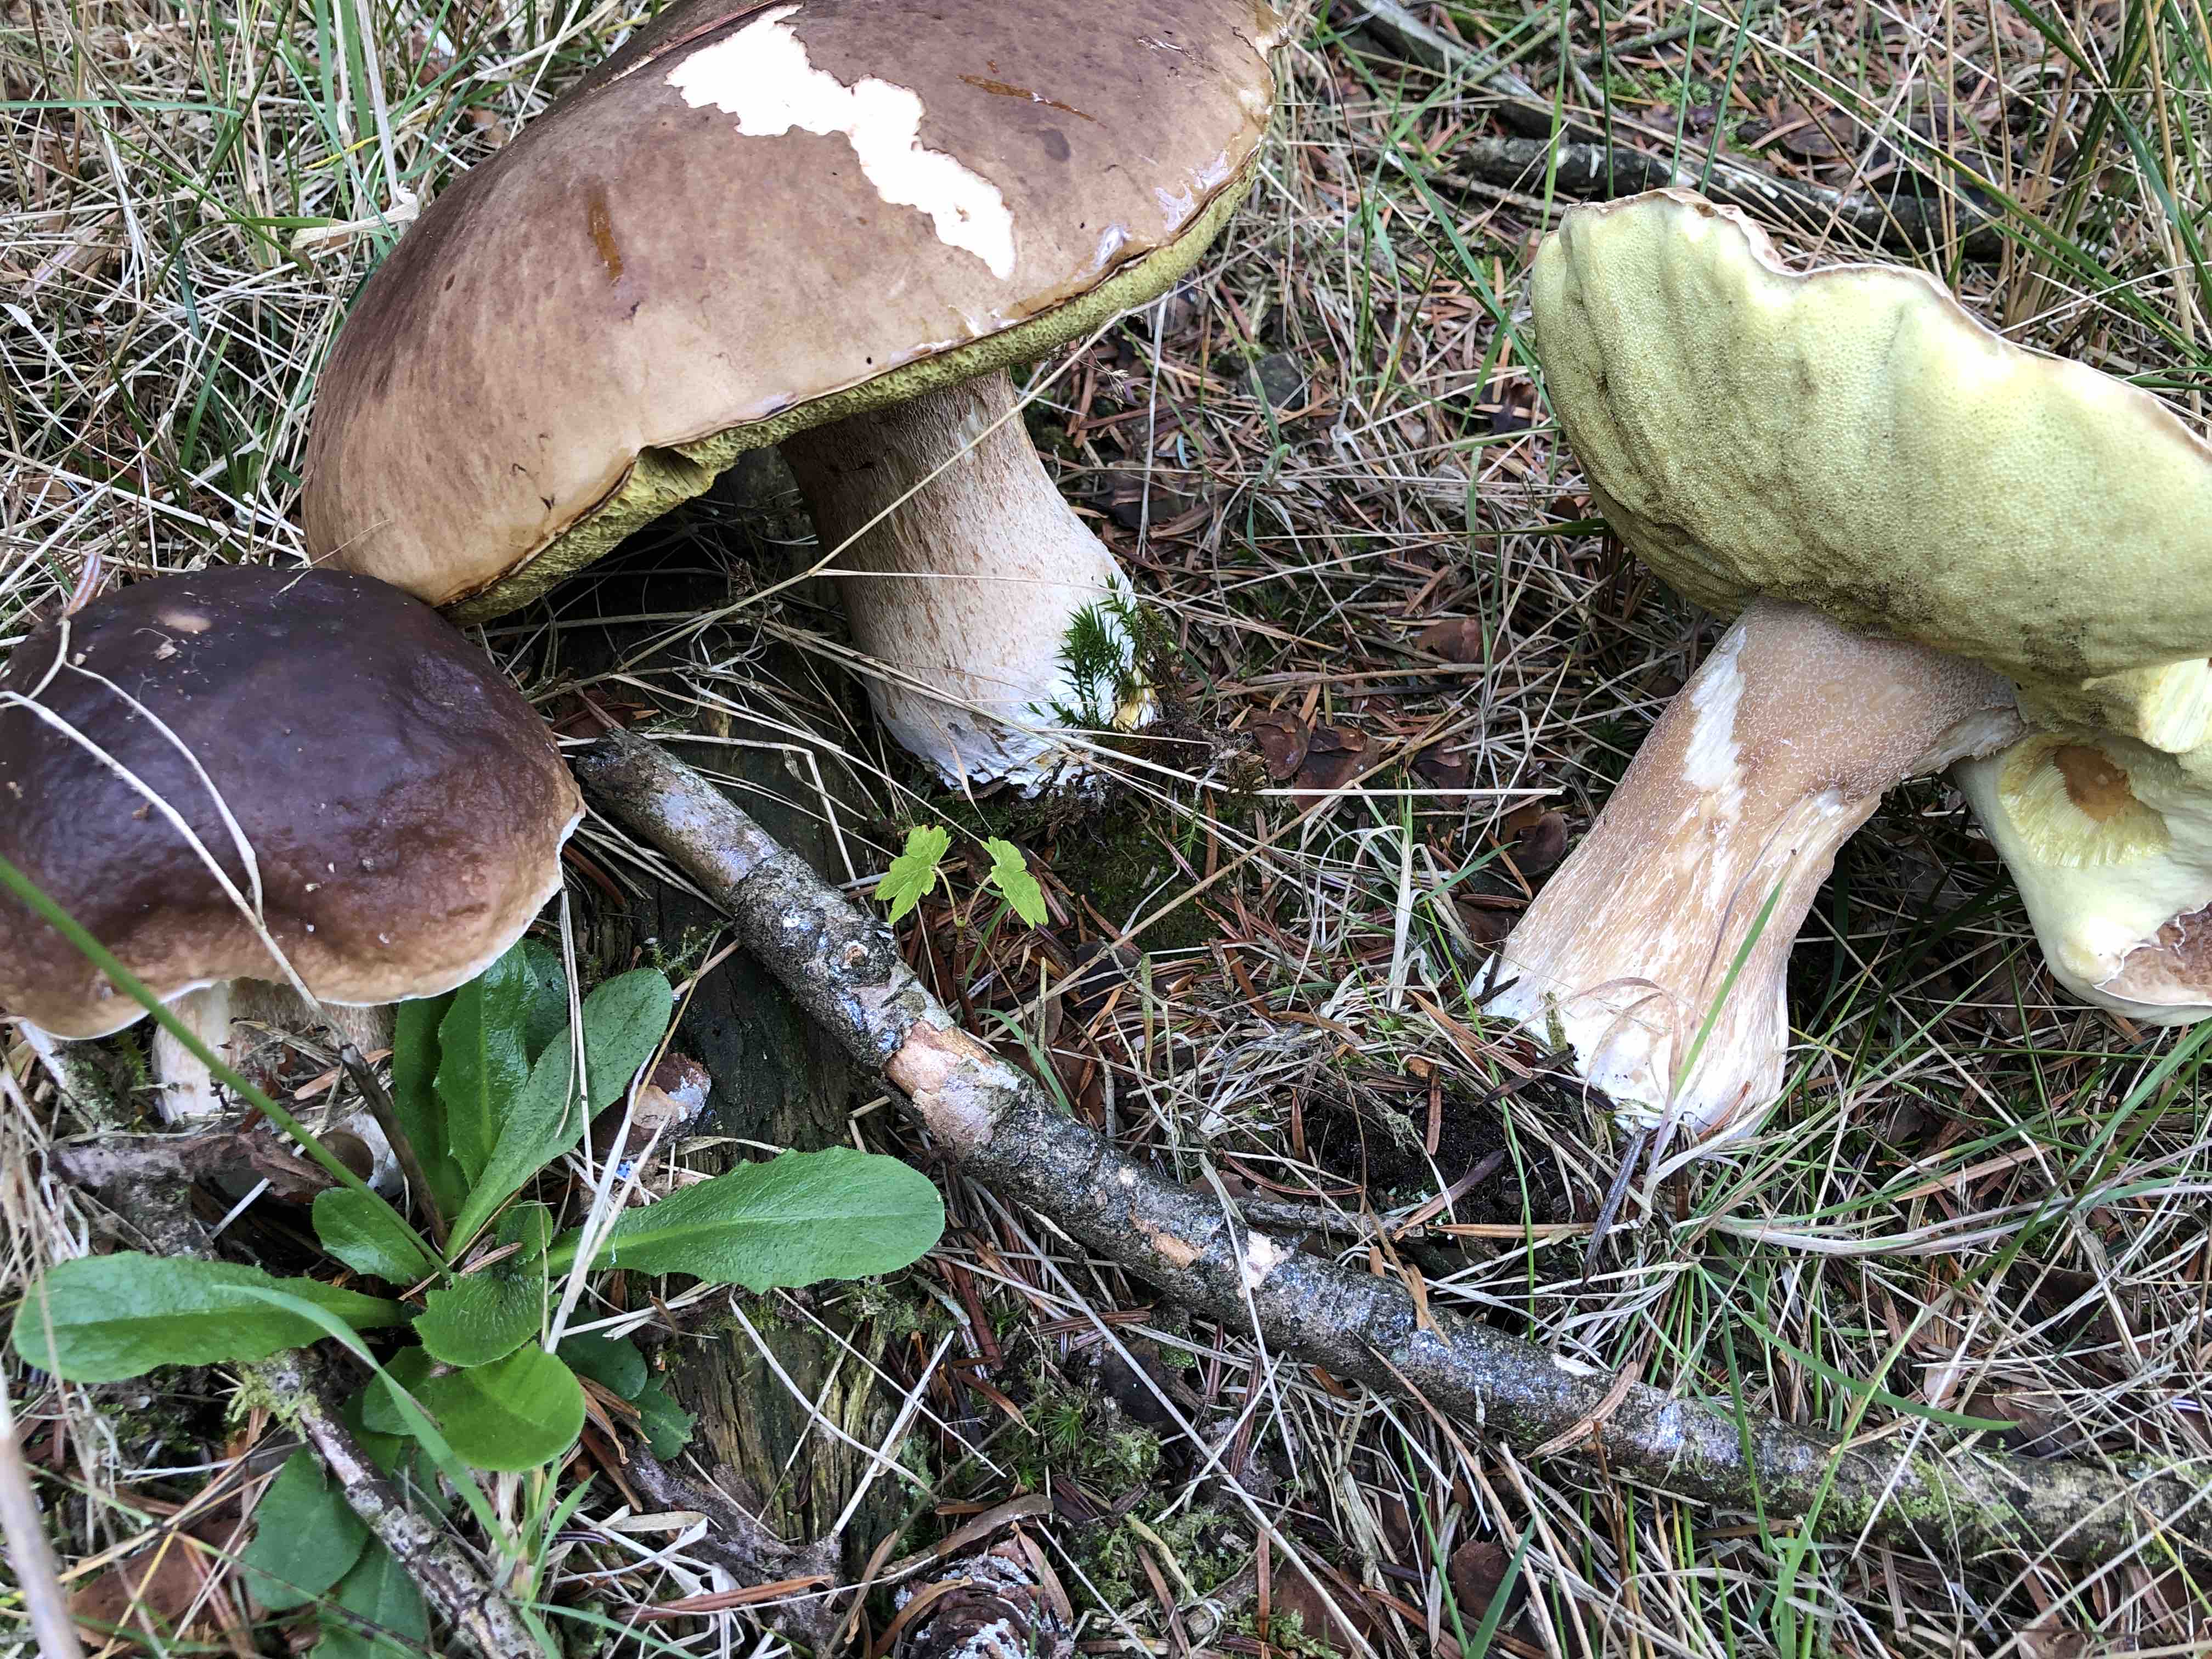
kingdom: Fungi
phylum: Basidiomycota
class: Agaricomycetes
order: Boletales
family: Boletaceae
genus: Boletus
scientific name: Boletus edulis
